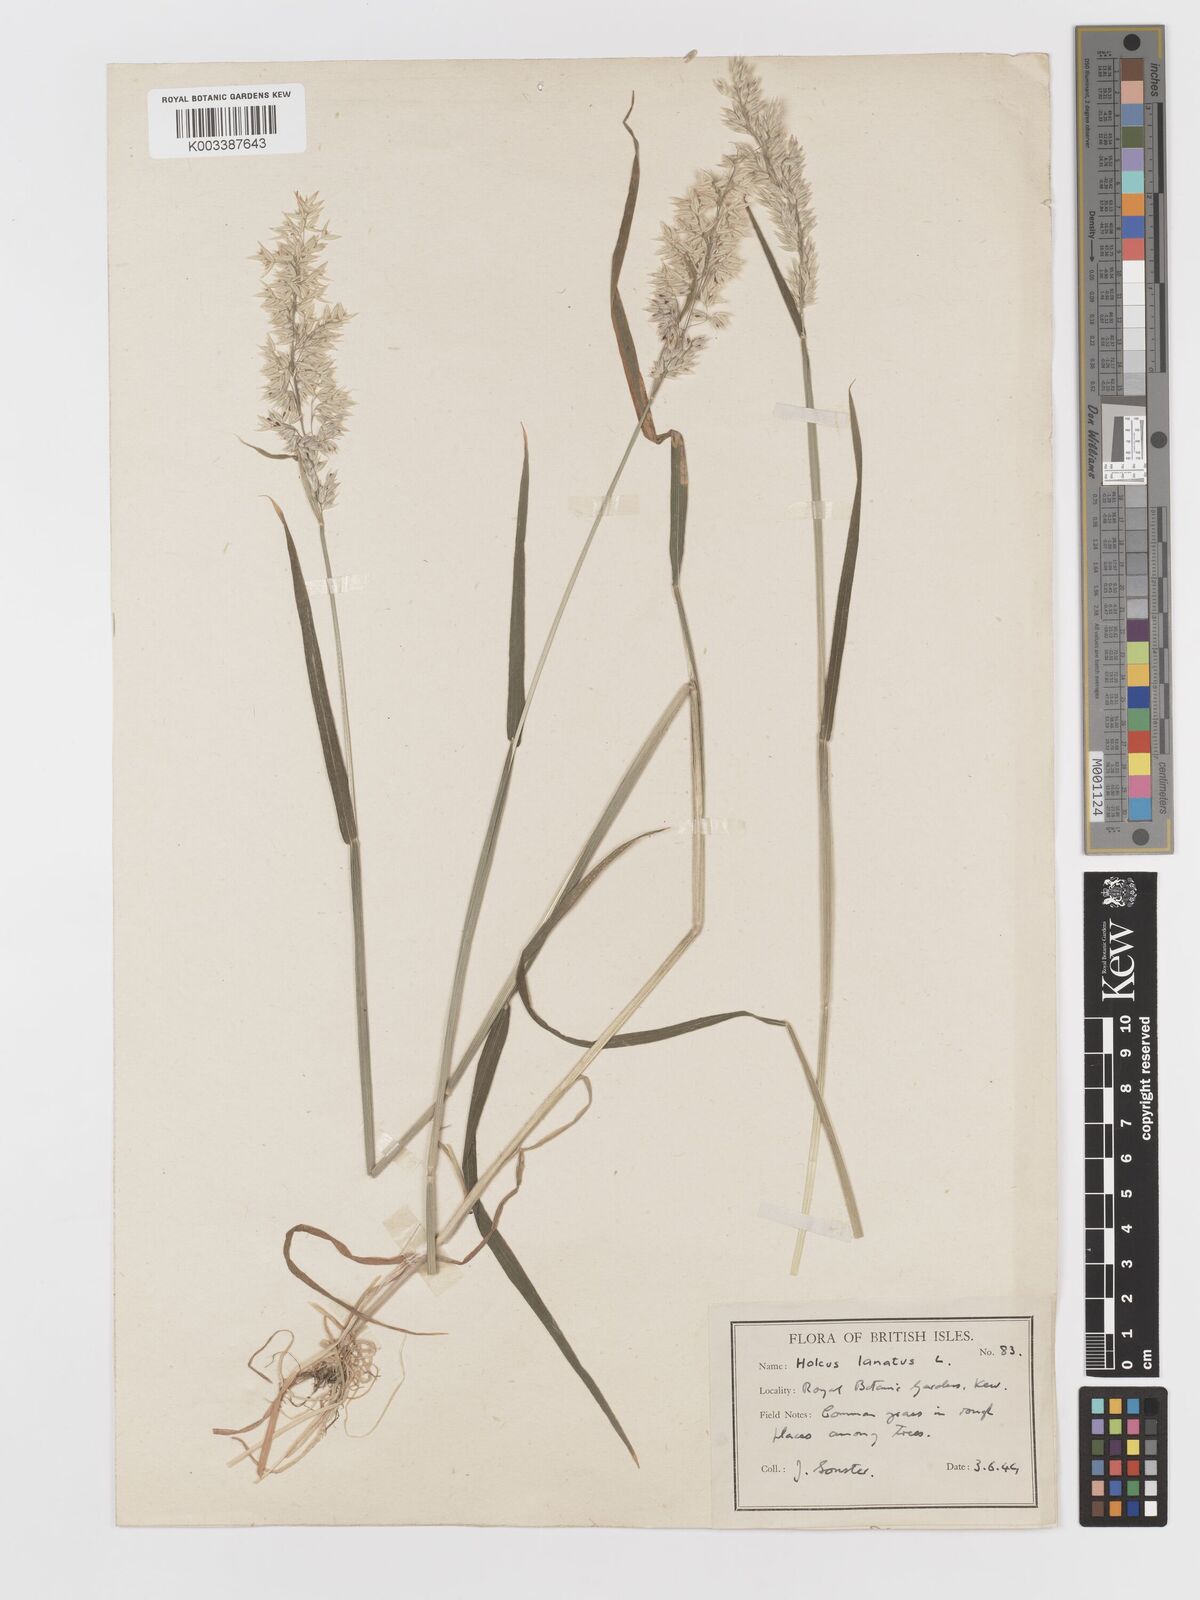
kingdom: Plantae
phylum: Tracheophyta
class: Liliopsida
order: Poales
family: Poaceae
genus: Holcus
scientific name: Holcus lanatus
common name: Yorkshire-fog
